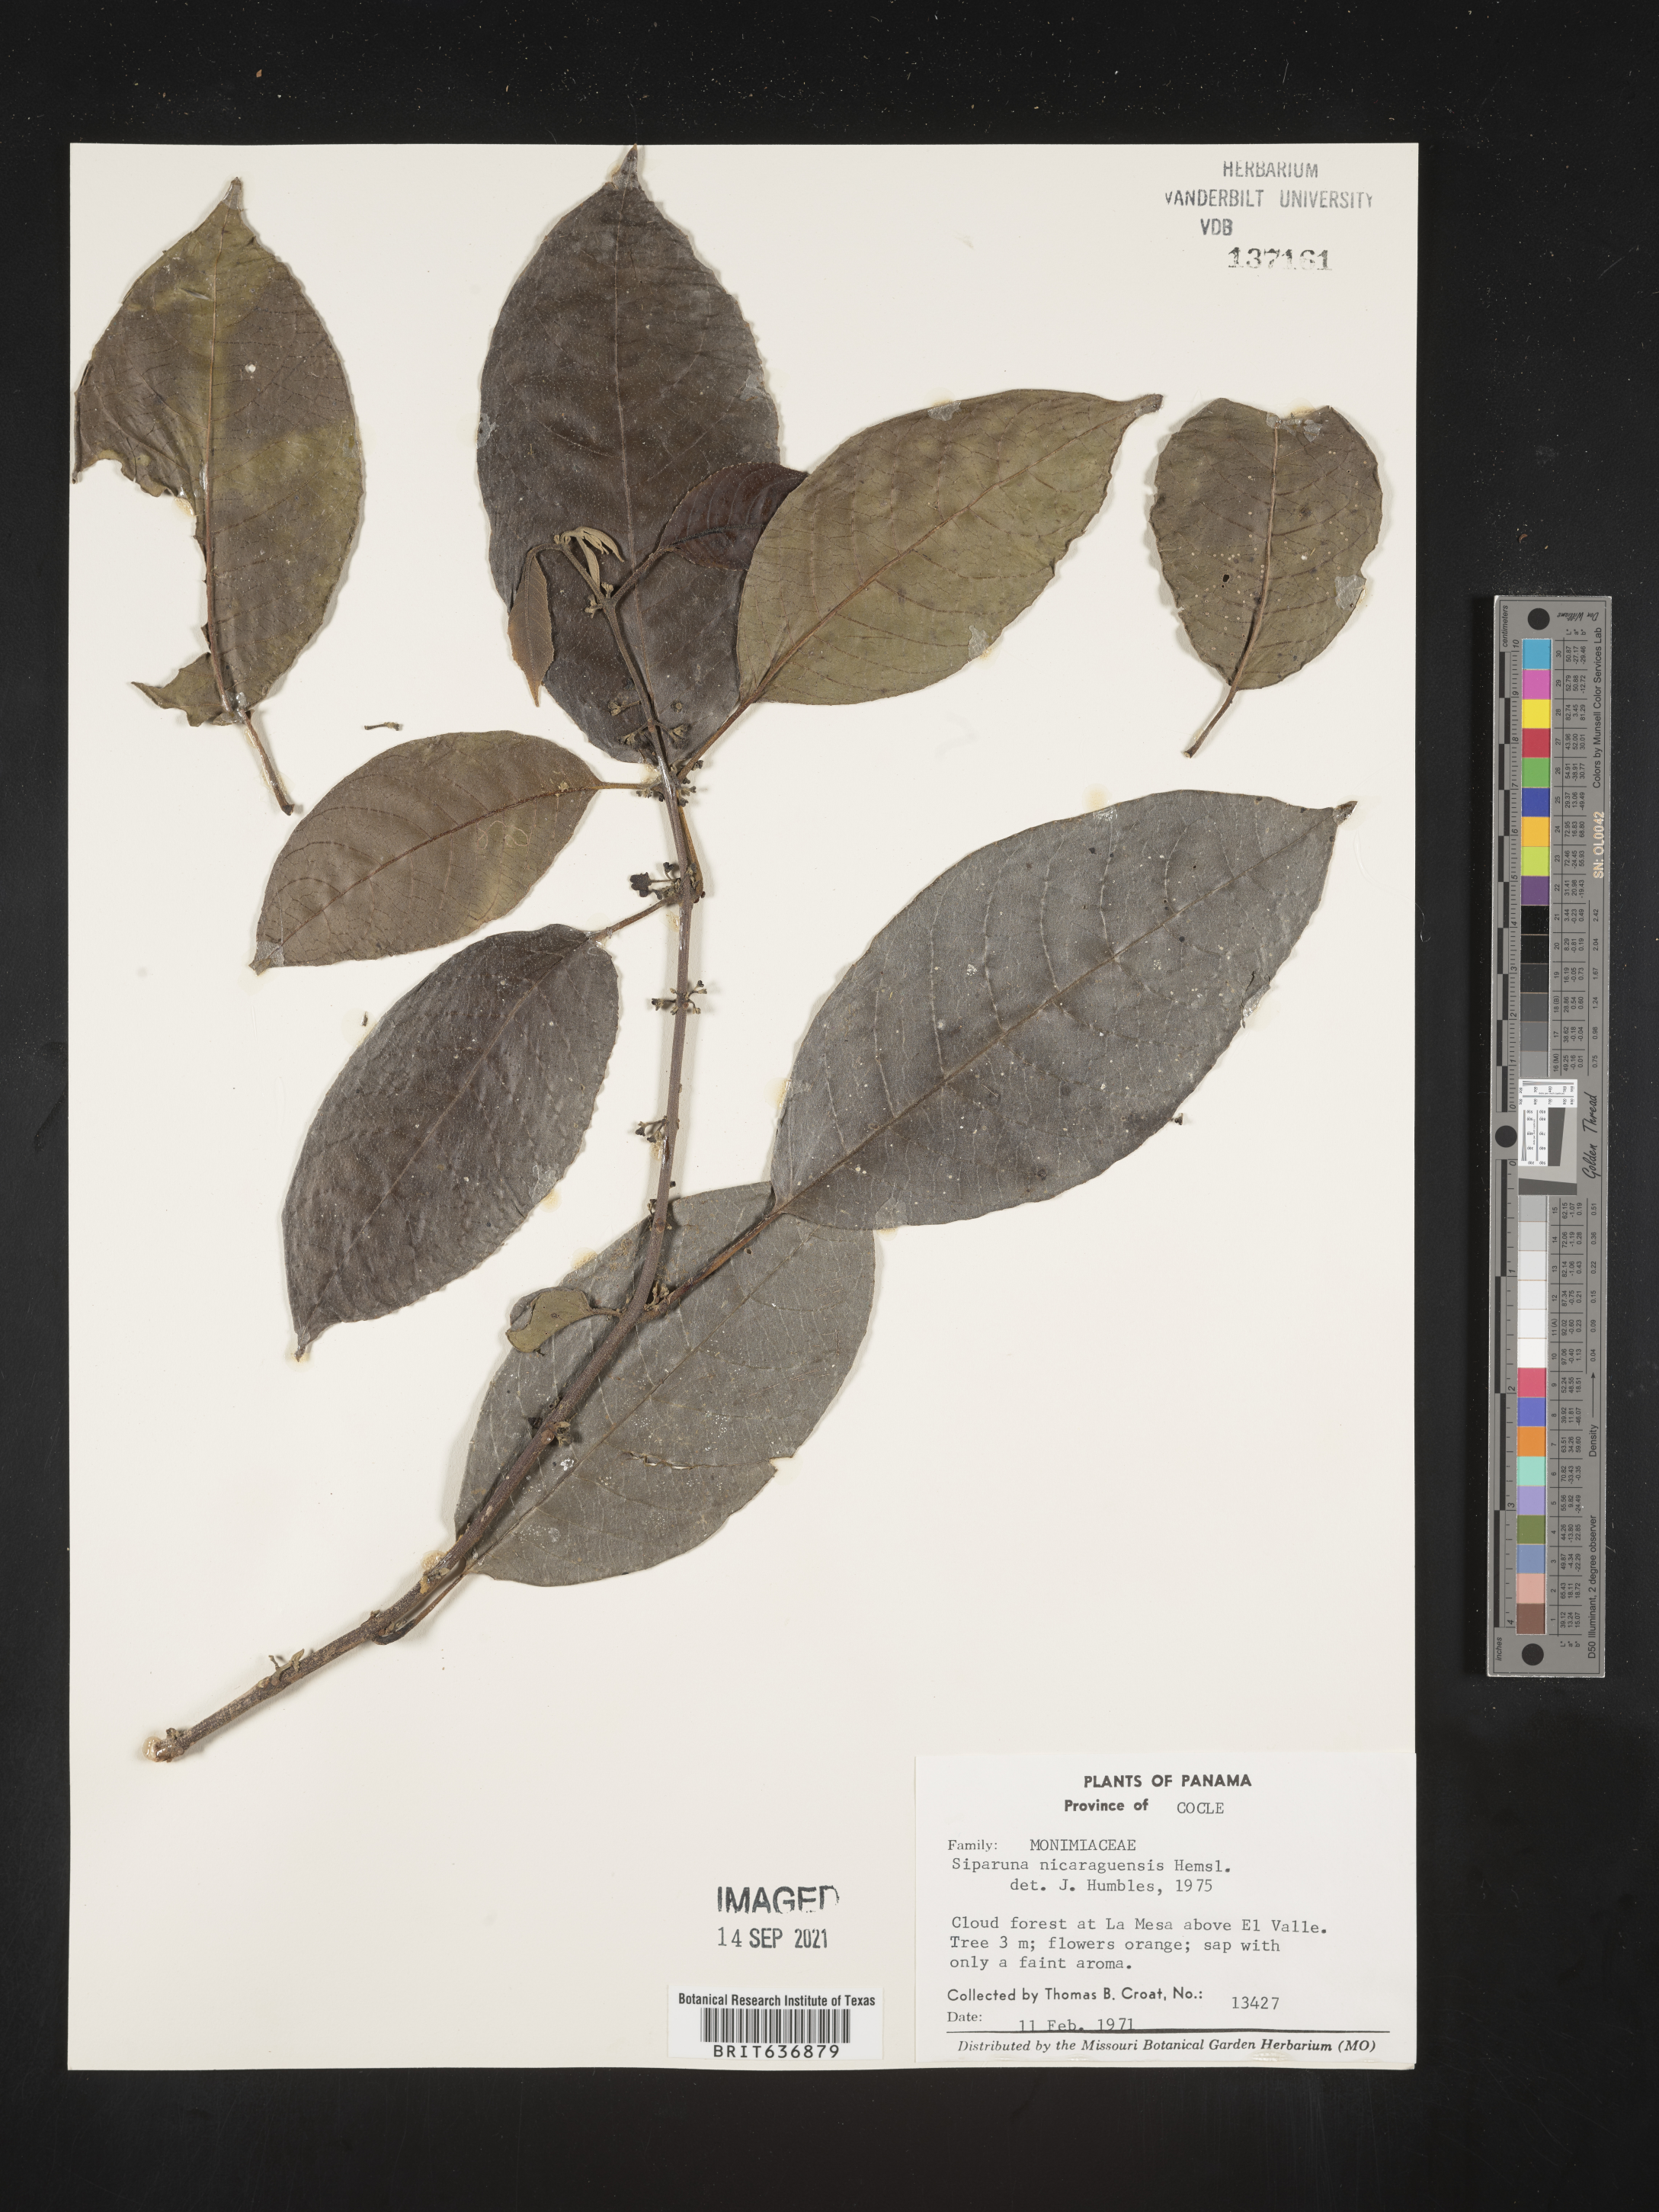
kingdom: Plantae
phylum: Tracheophyta
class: Magnoliopsida
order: Laurales
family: Siparunaceae
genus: Siparuna
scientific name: Siparuna
